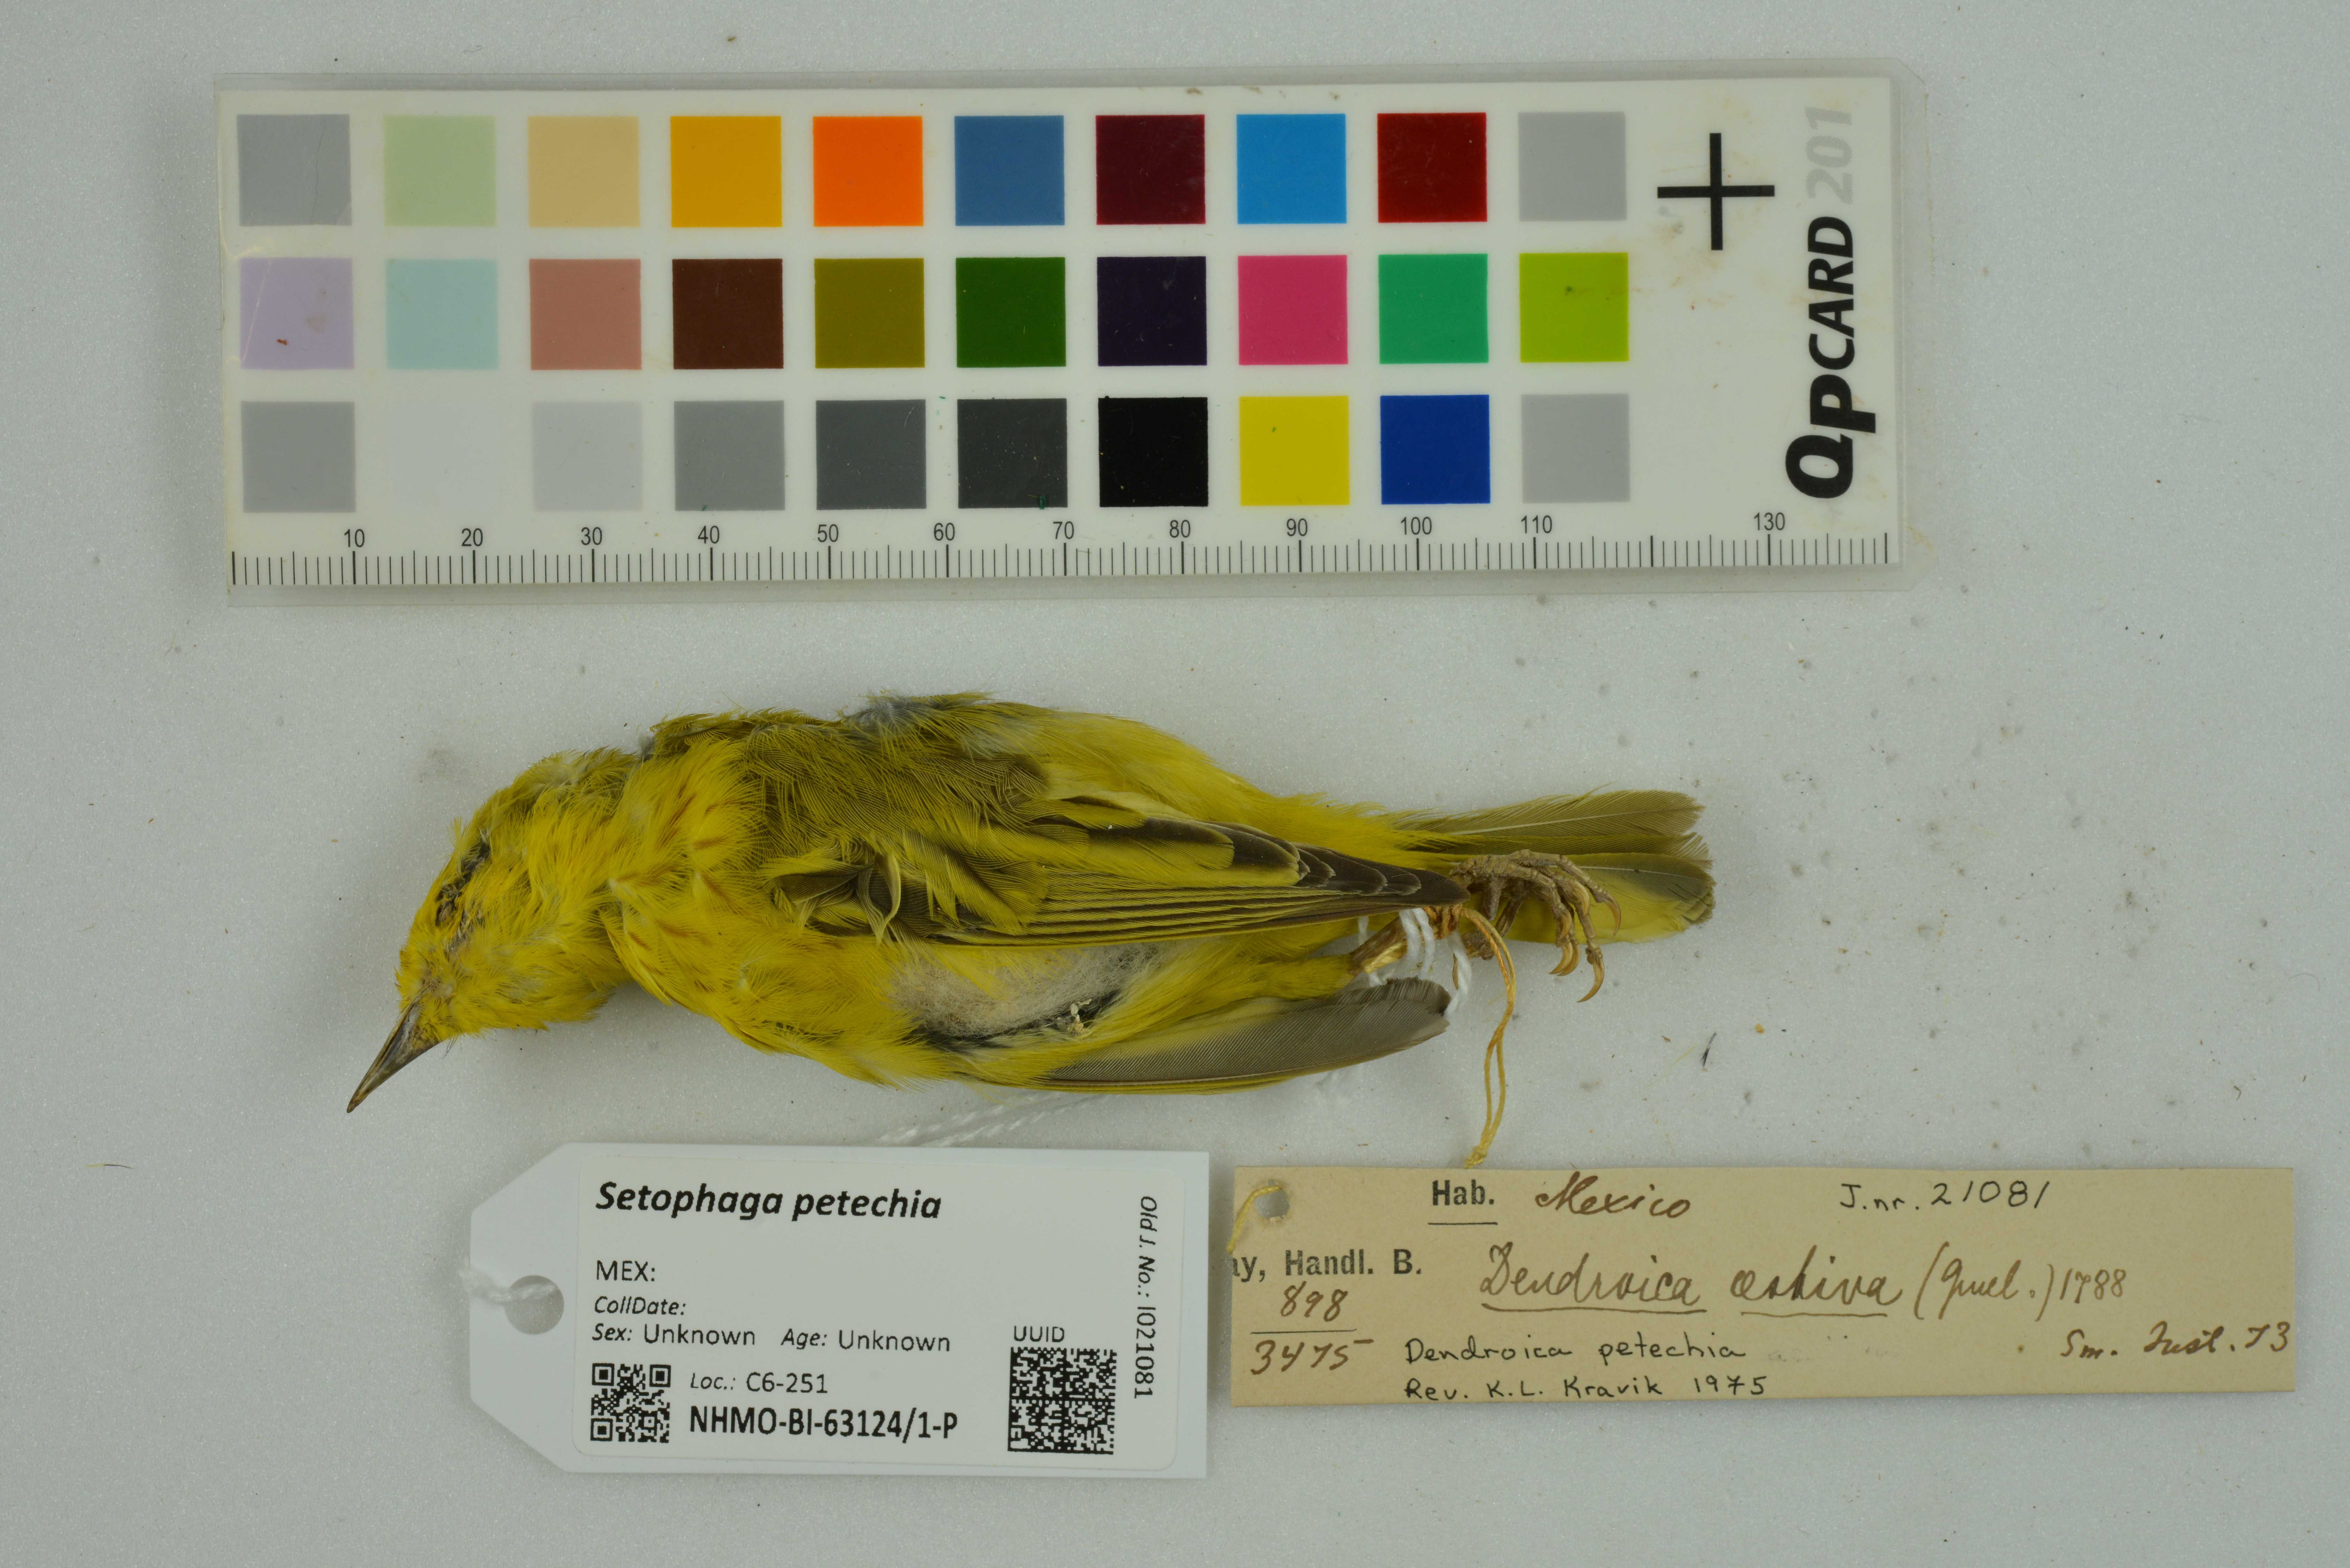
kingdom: Animalia
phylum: Chordata
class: Aves
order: Passeriformes
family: Parulidae
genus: Setophaga
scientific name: Setophaga petechia
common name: Yellow warbler
